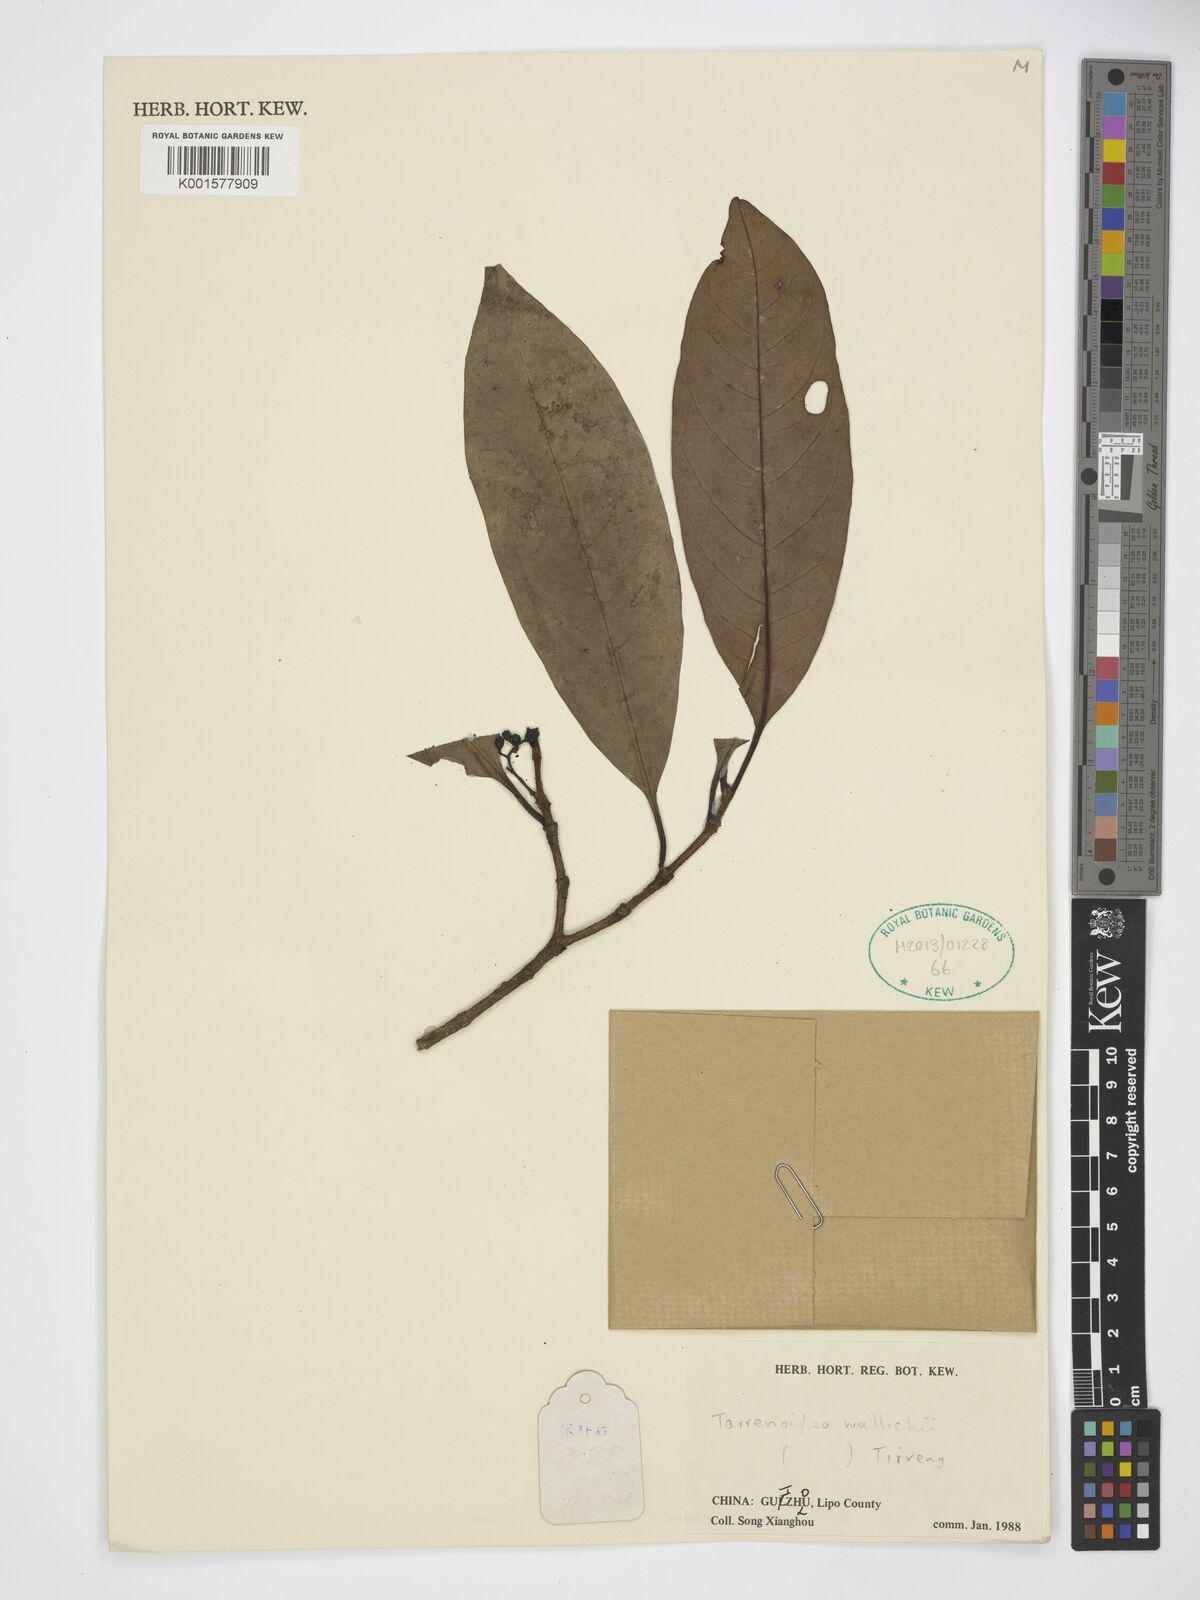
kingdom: Plantae
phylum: Tracheophyta
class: Magnoliopsida
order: Gentianales
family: Rubiaceae
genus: Tarennoidea
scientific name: Tarennoidea wallichii
